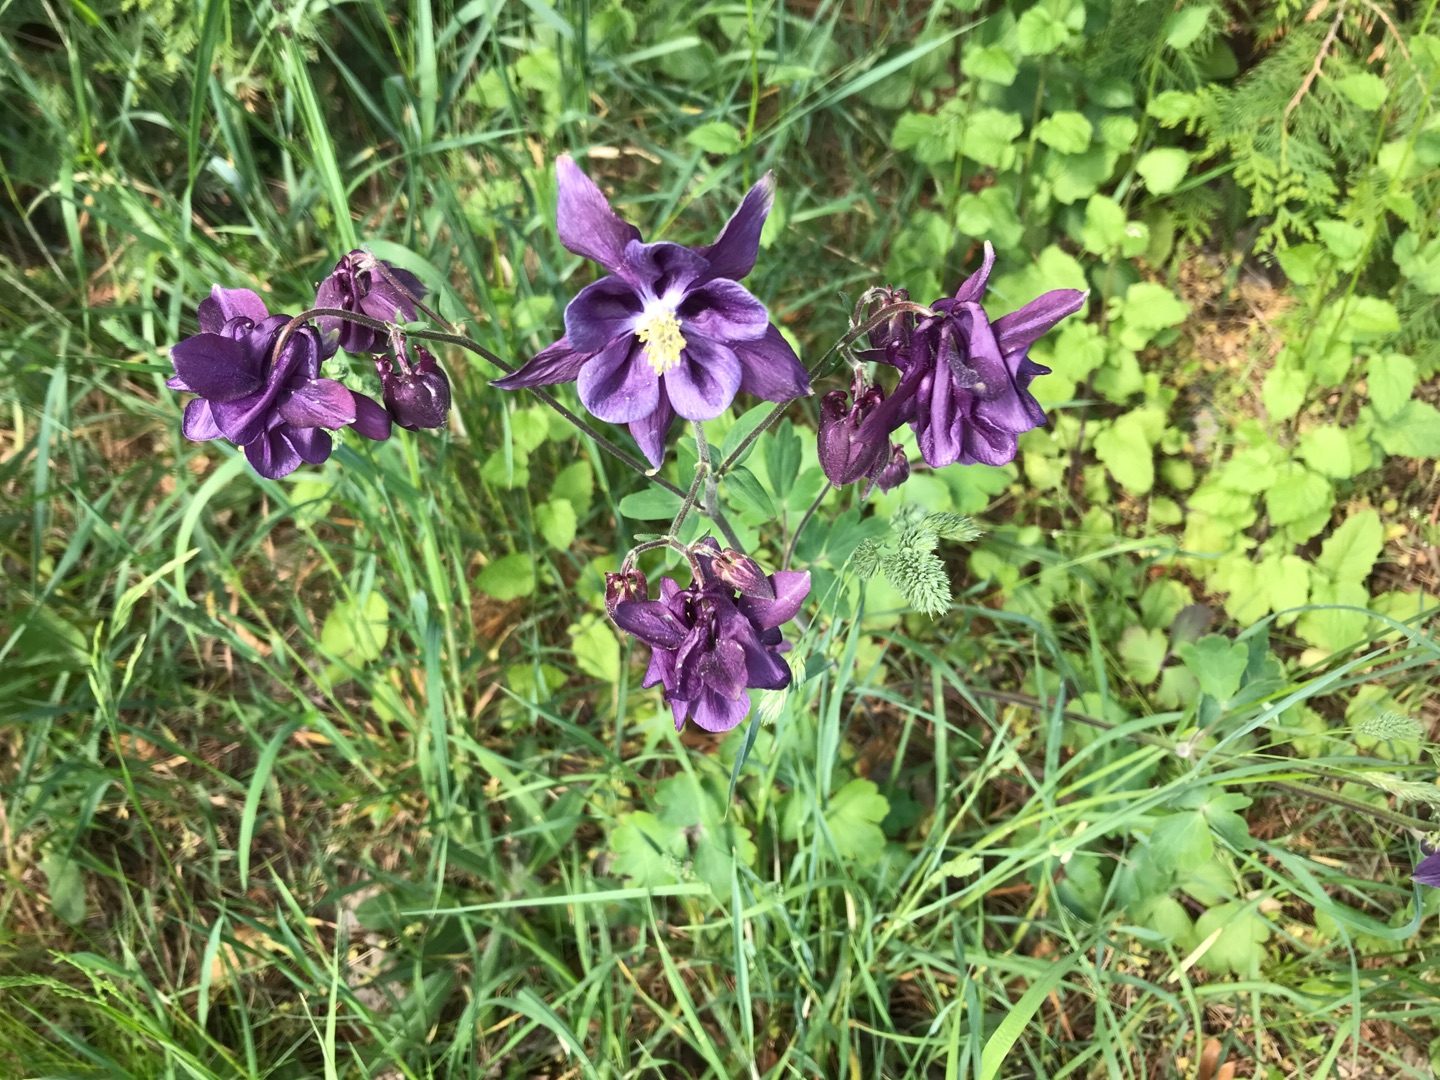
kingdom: Plantae
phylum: Tracheophyta
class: Magnoliopsida
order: Ranunculales
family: Ranunculaceae
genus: Aquilegia
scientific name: Aquilegia vulgaris
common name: Akeleje
